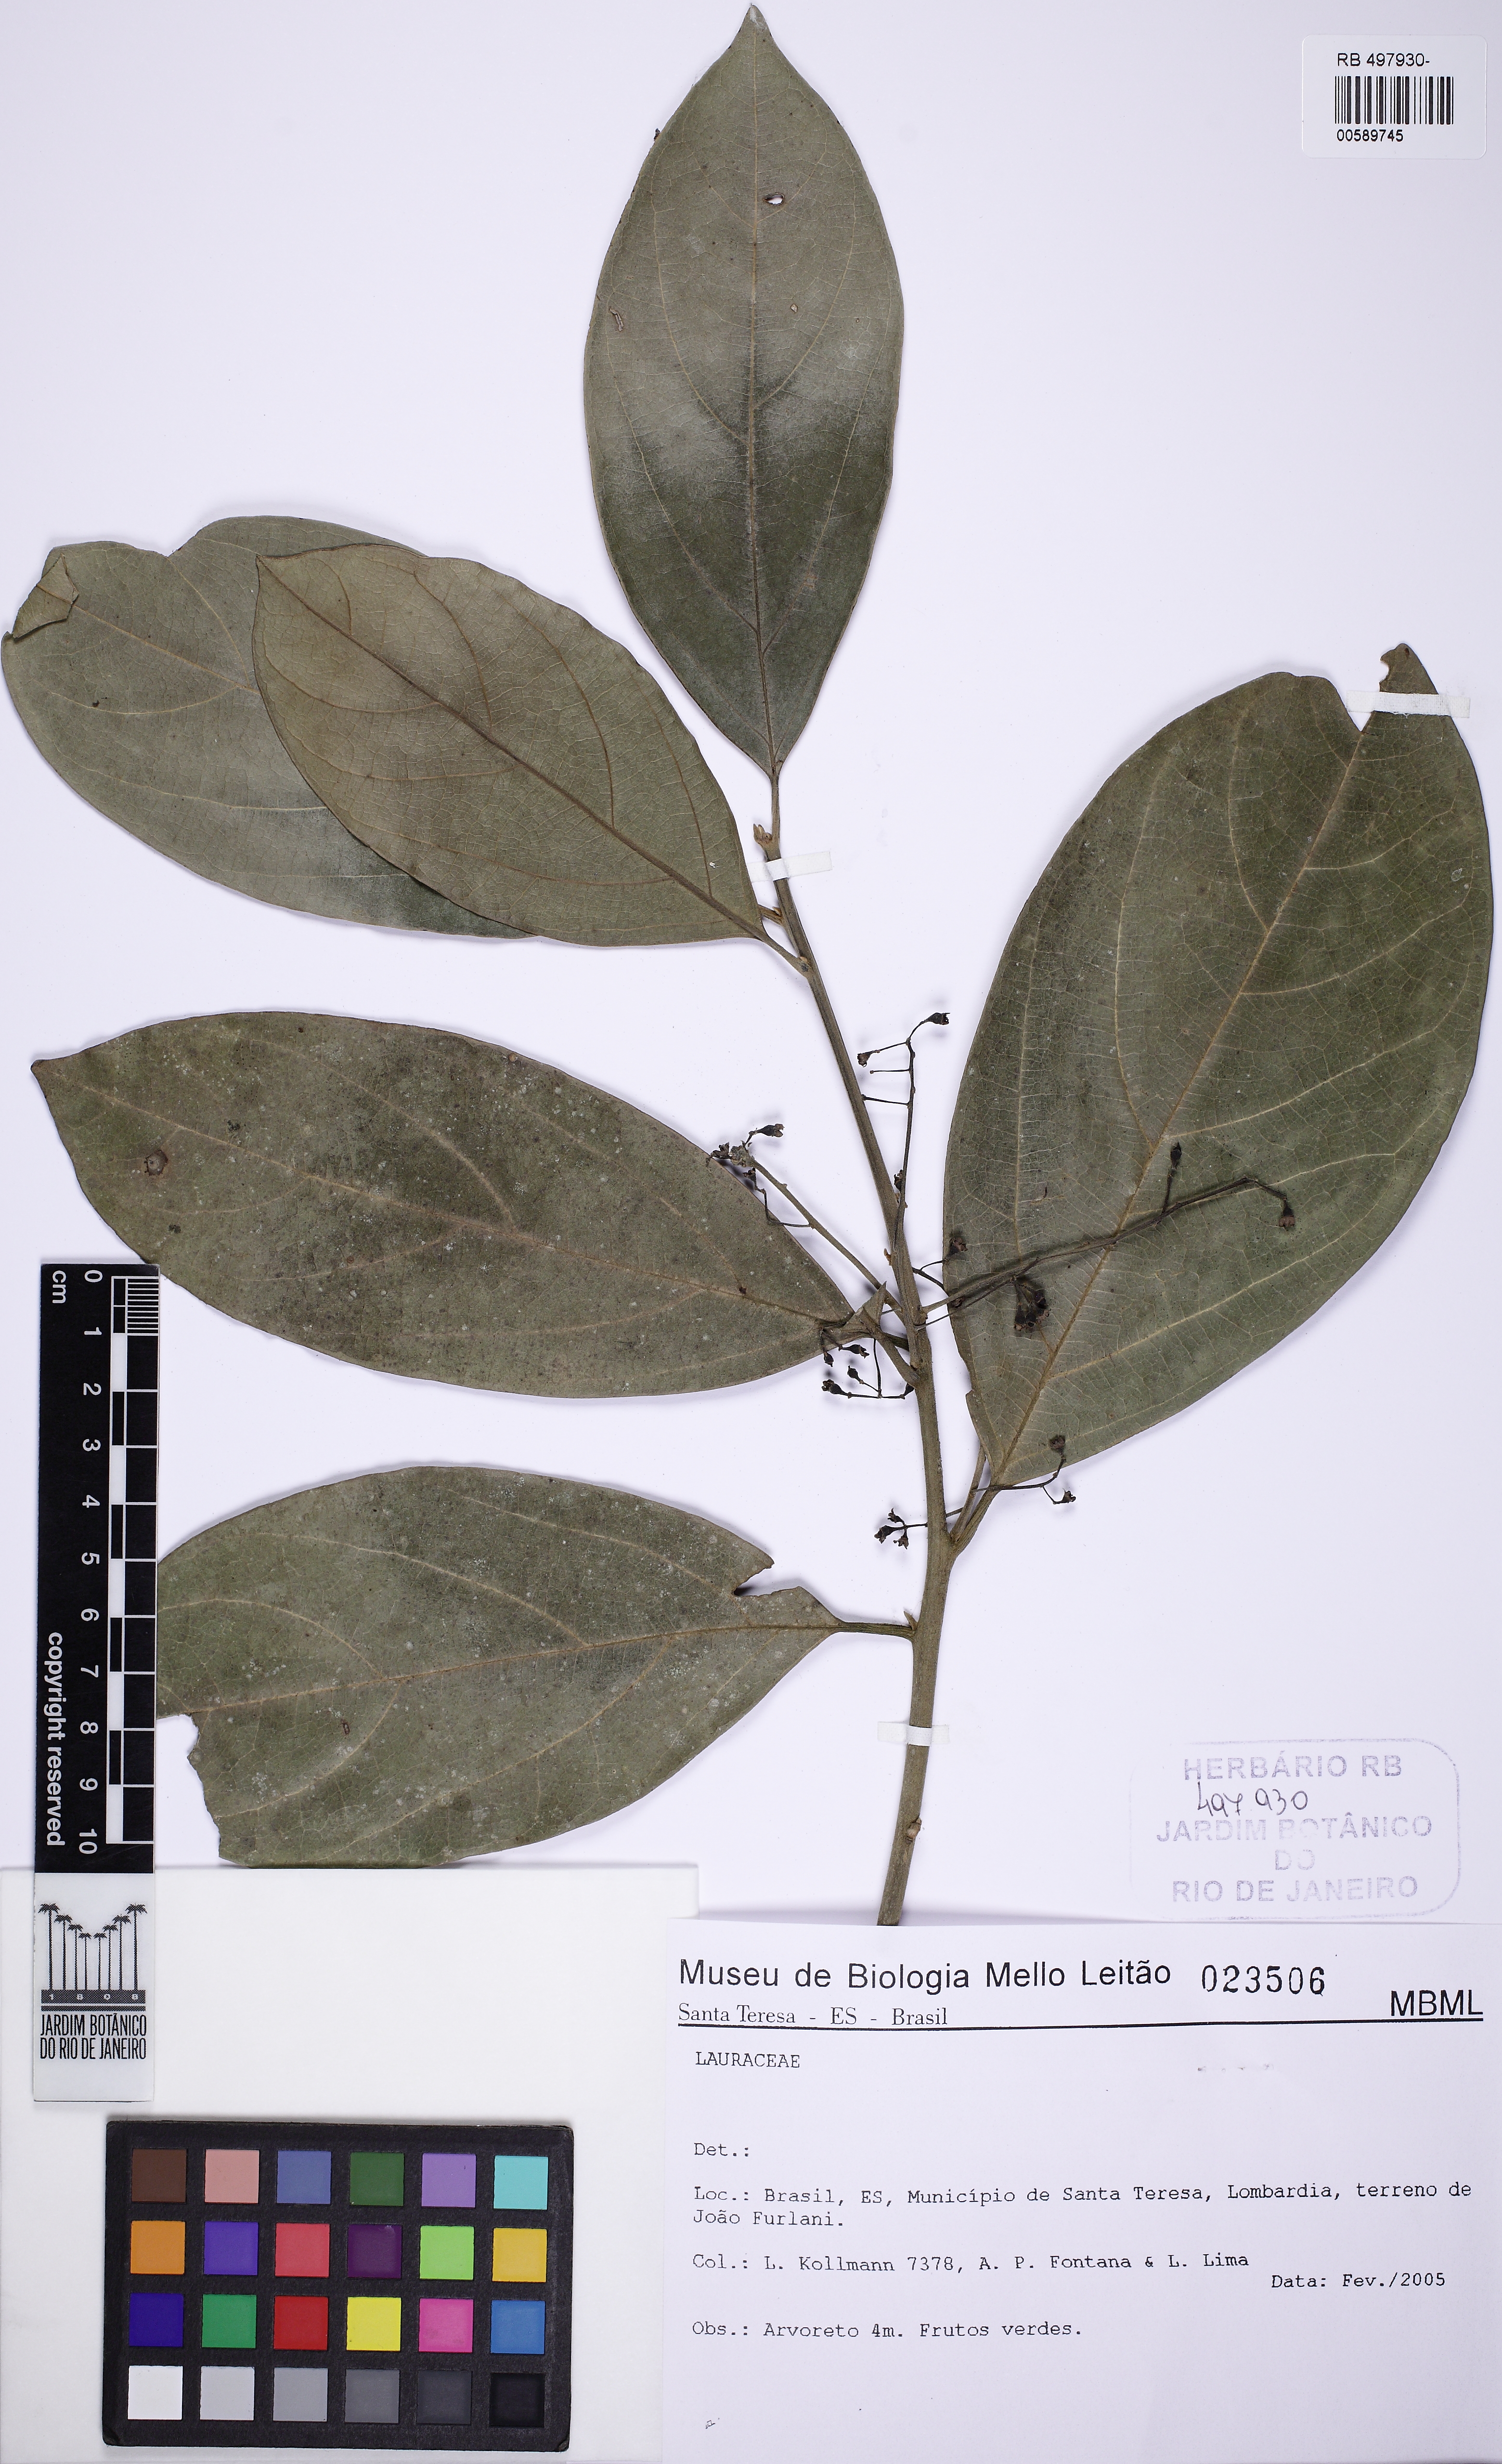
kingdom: Plantae
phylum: Tracheophyta
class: Magnoliopsida
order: Laurales
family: Lauraceae
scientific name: Lauraceae
